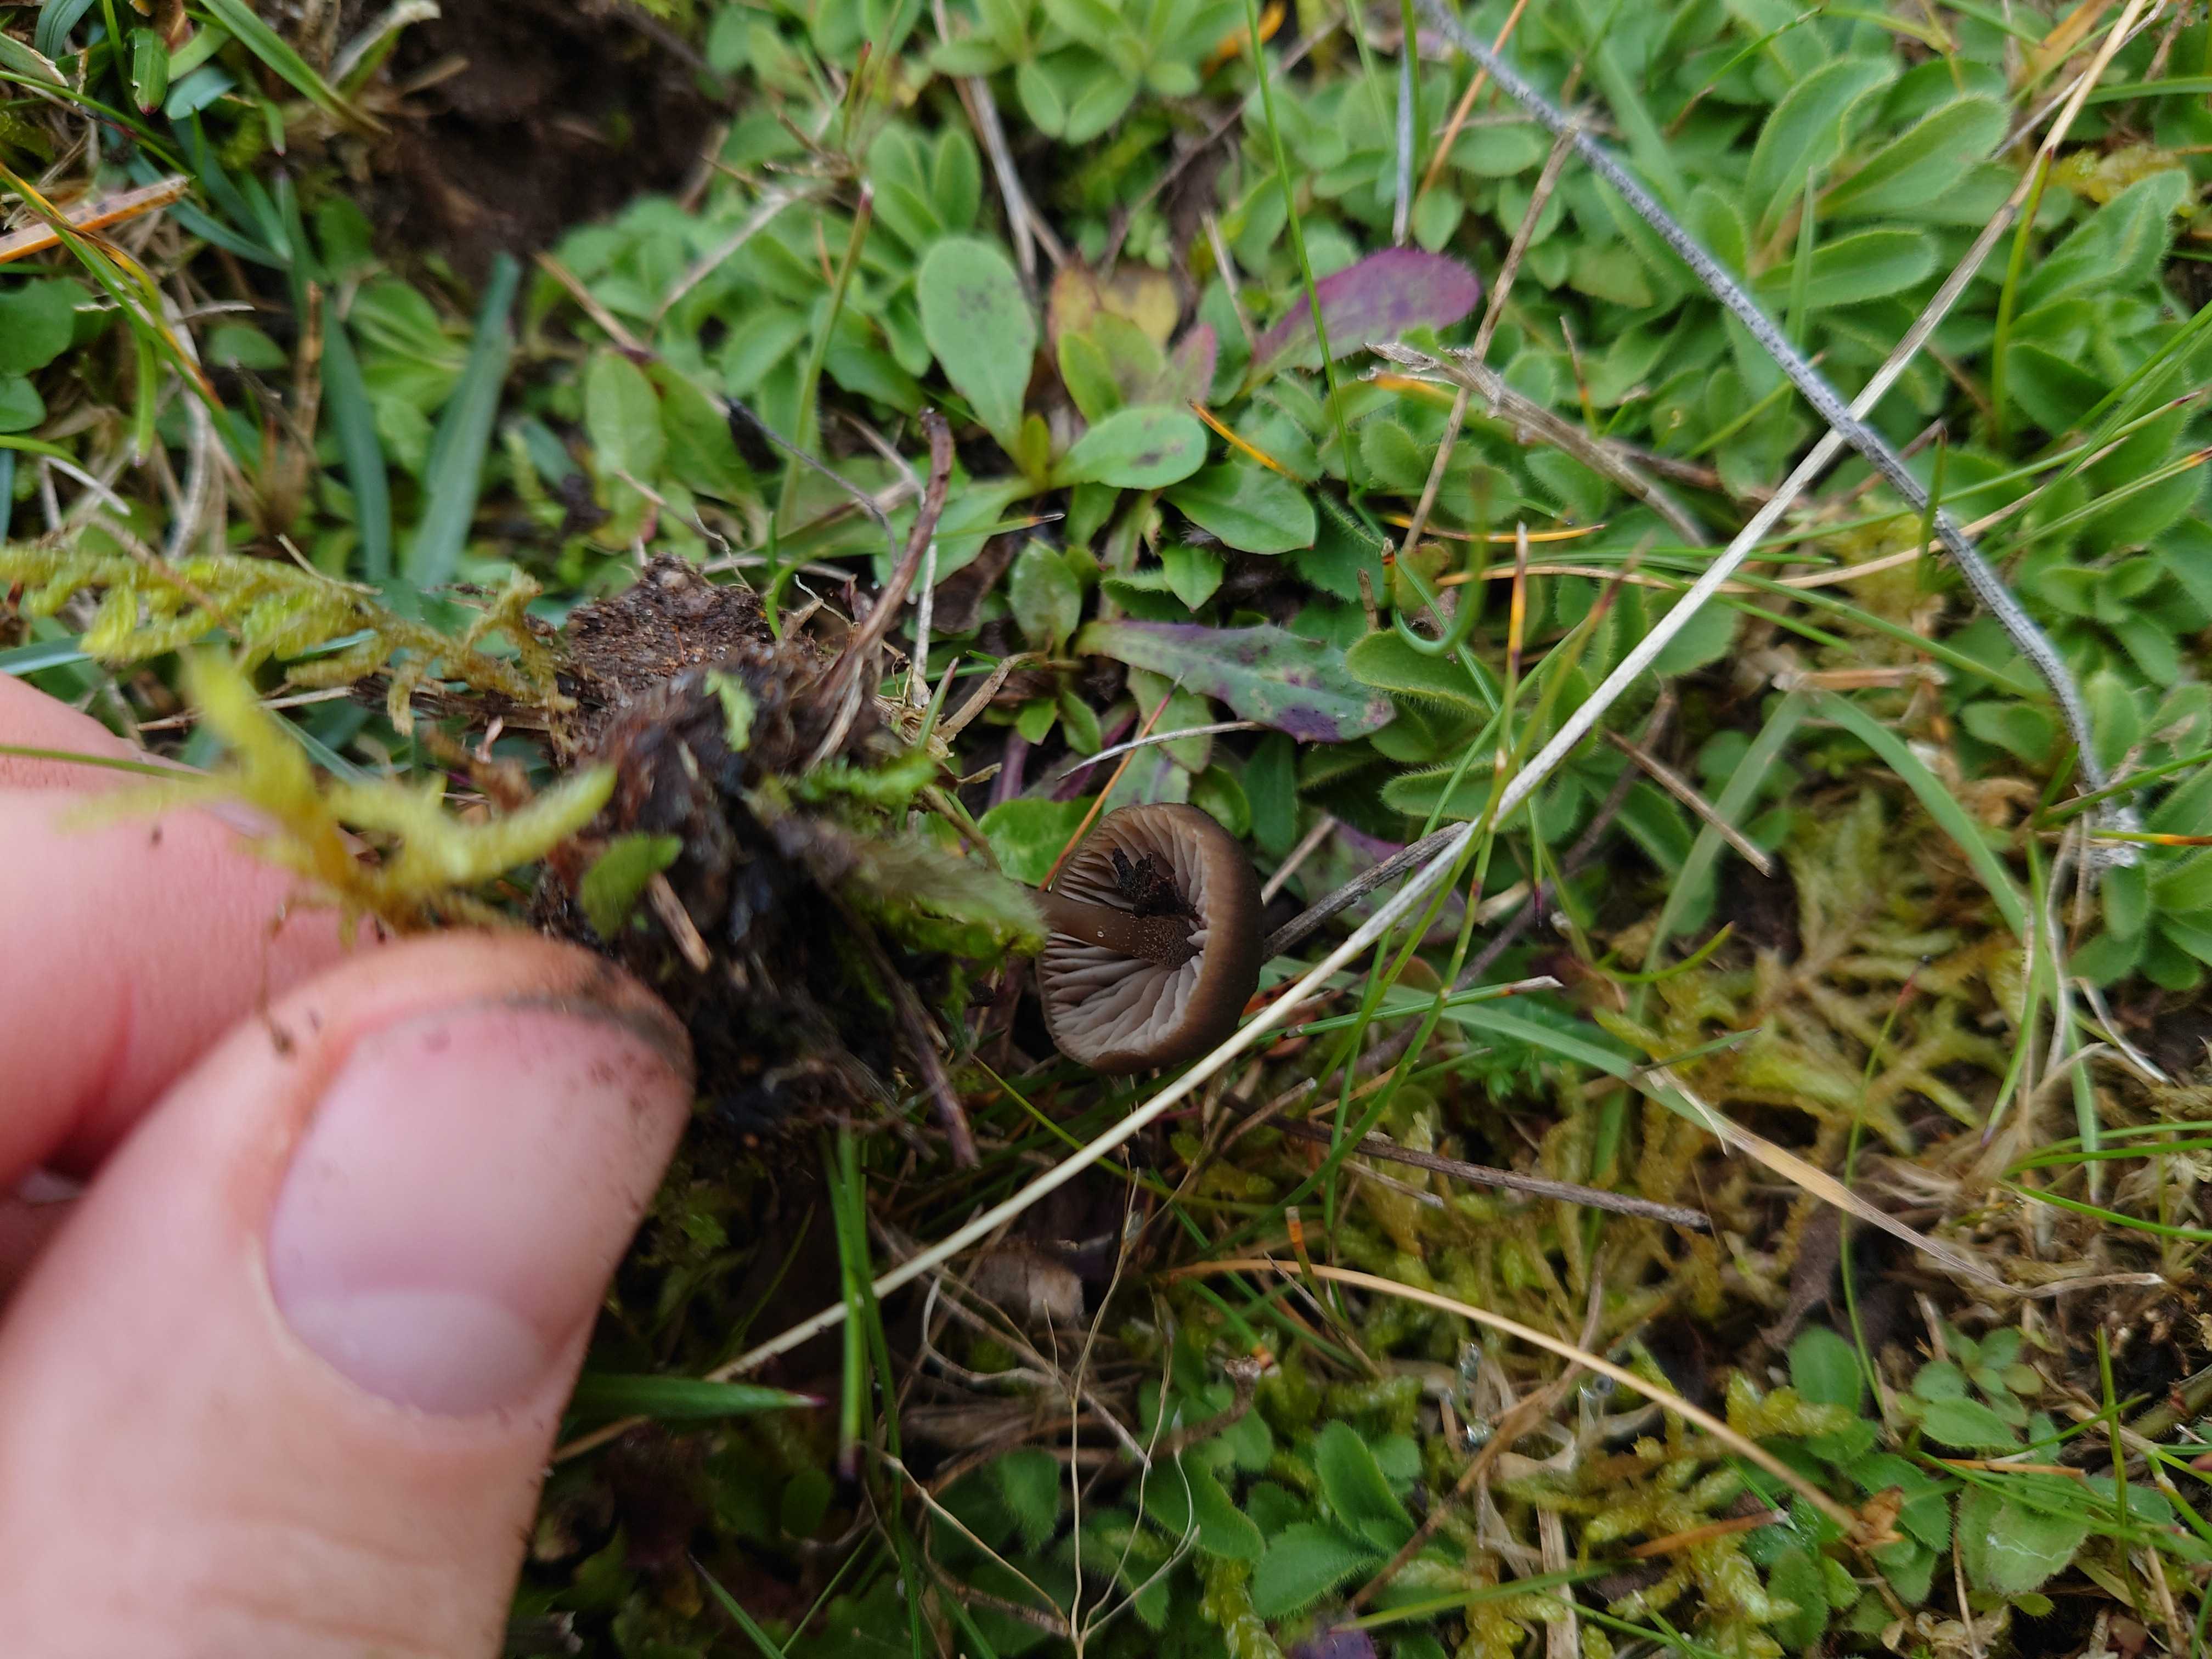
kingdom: Fungi
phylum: Basidiomycota
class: Agaricomycetes
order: Agaricales
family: Entolomataceae
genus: Entoloma
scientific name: Entoloma
